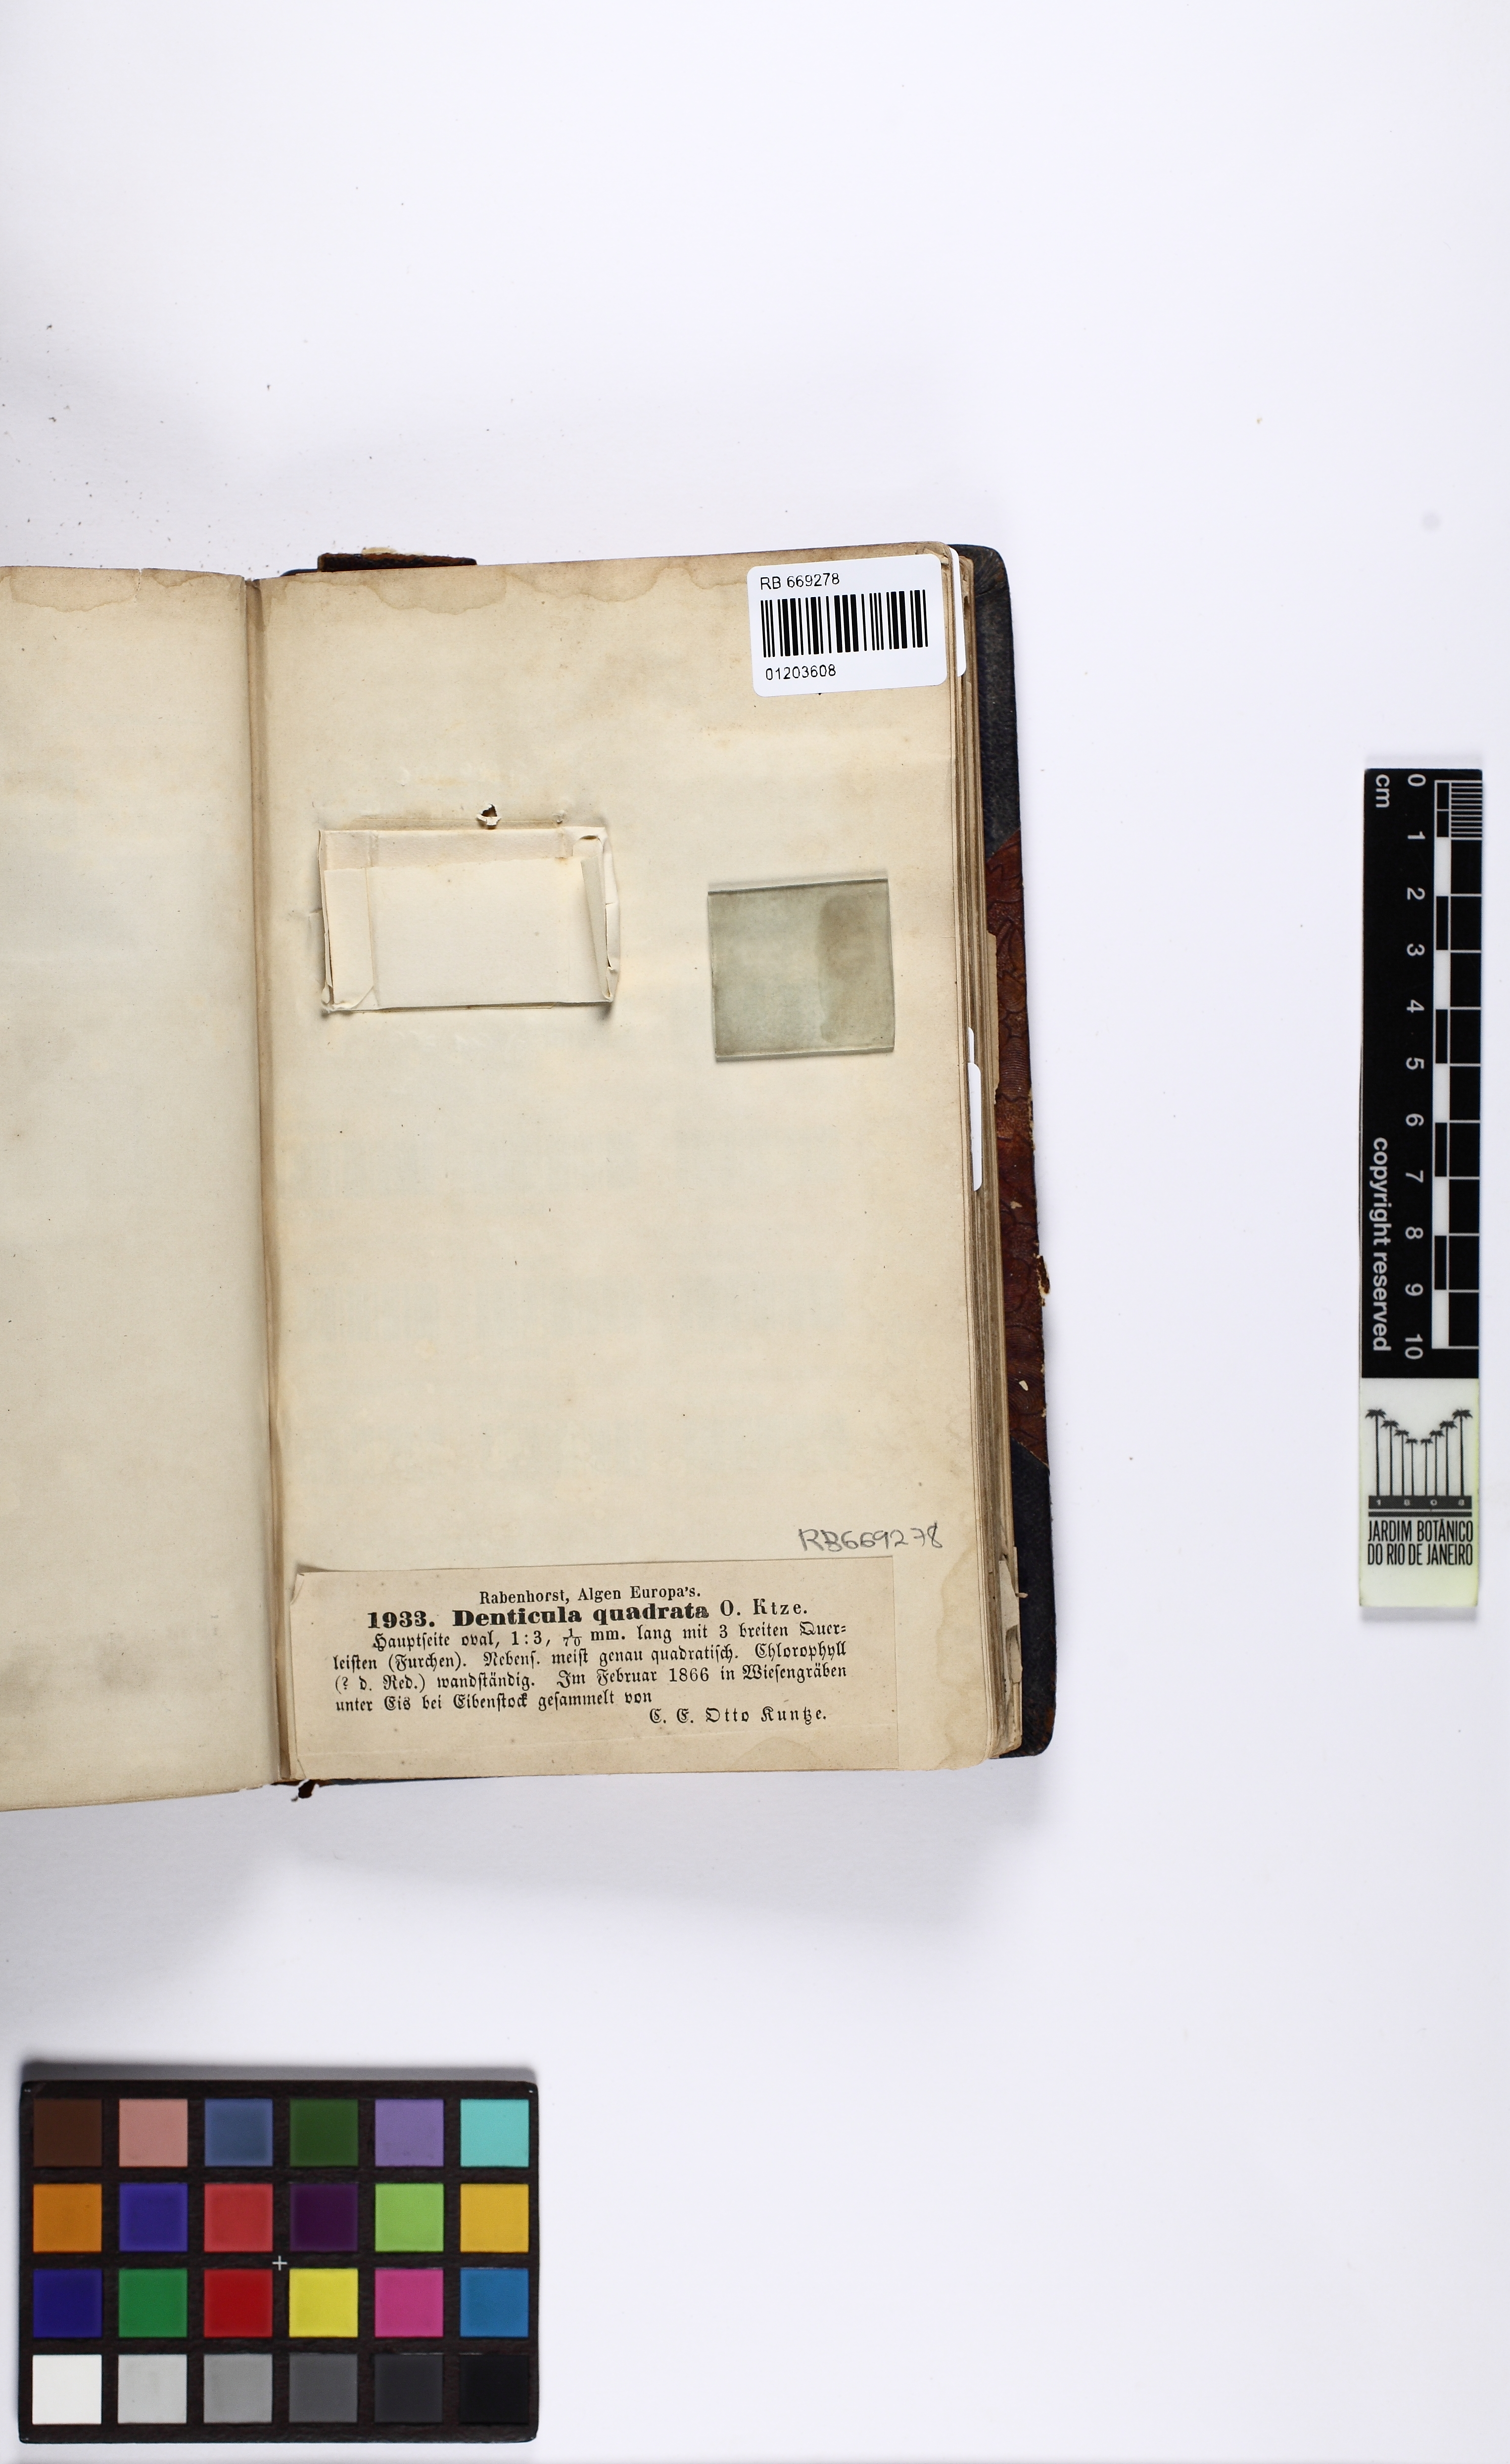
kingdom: Chromista
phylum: Ochrophyta
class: Bacillariophyceae
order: Bacillariales
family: Bacillariaceae
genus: Denticula
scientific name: Denticula quadrata
